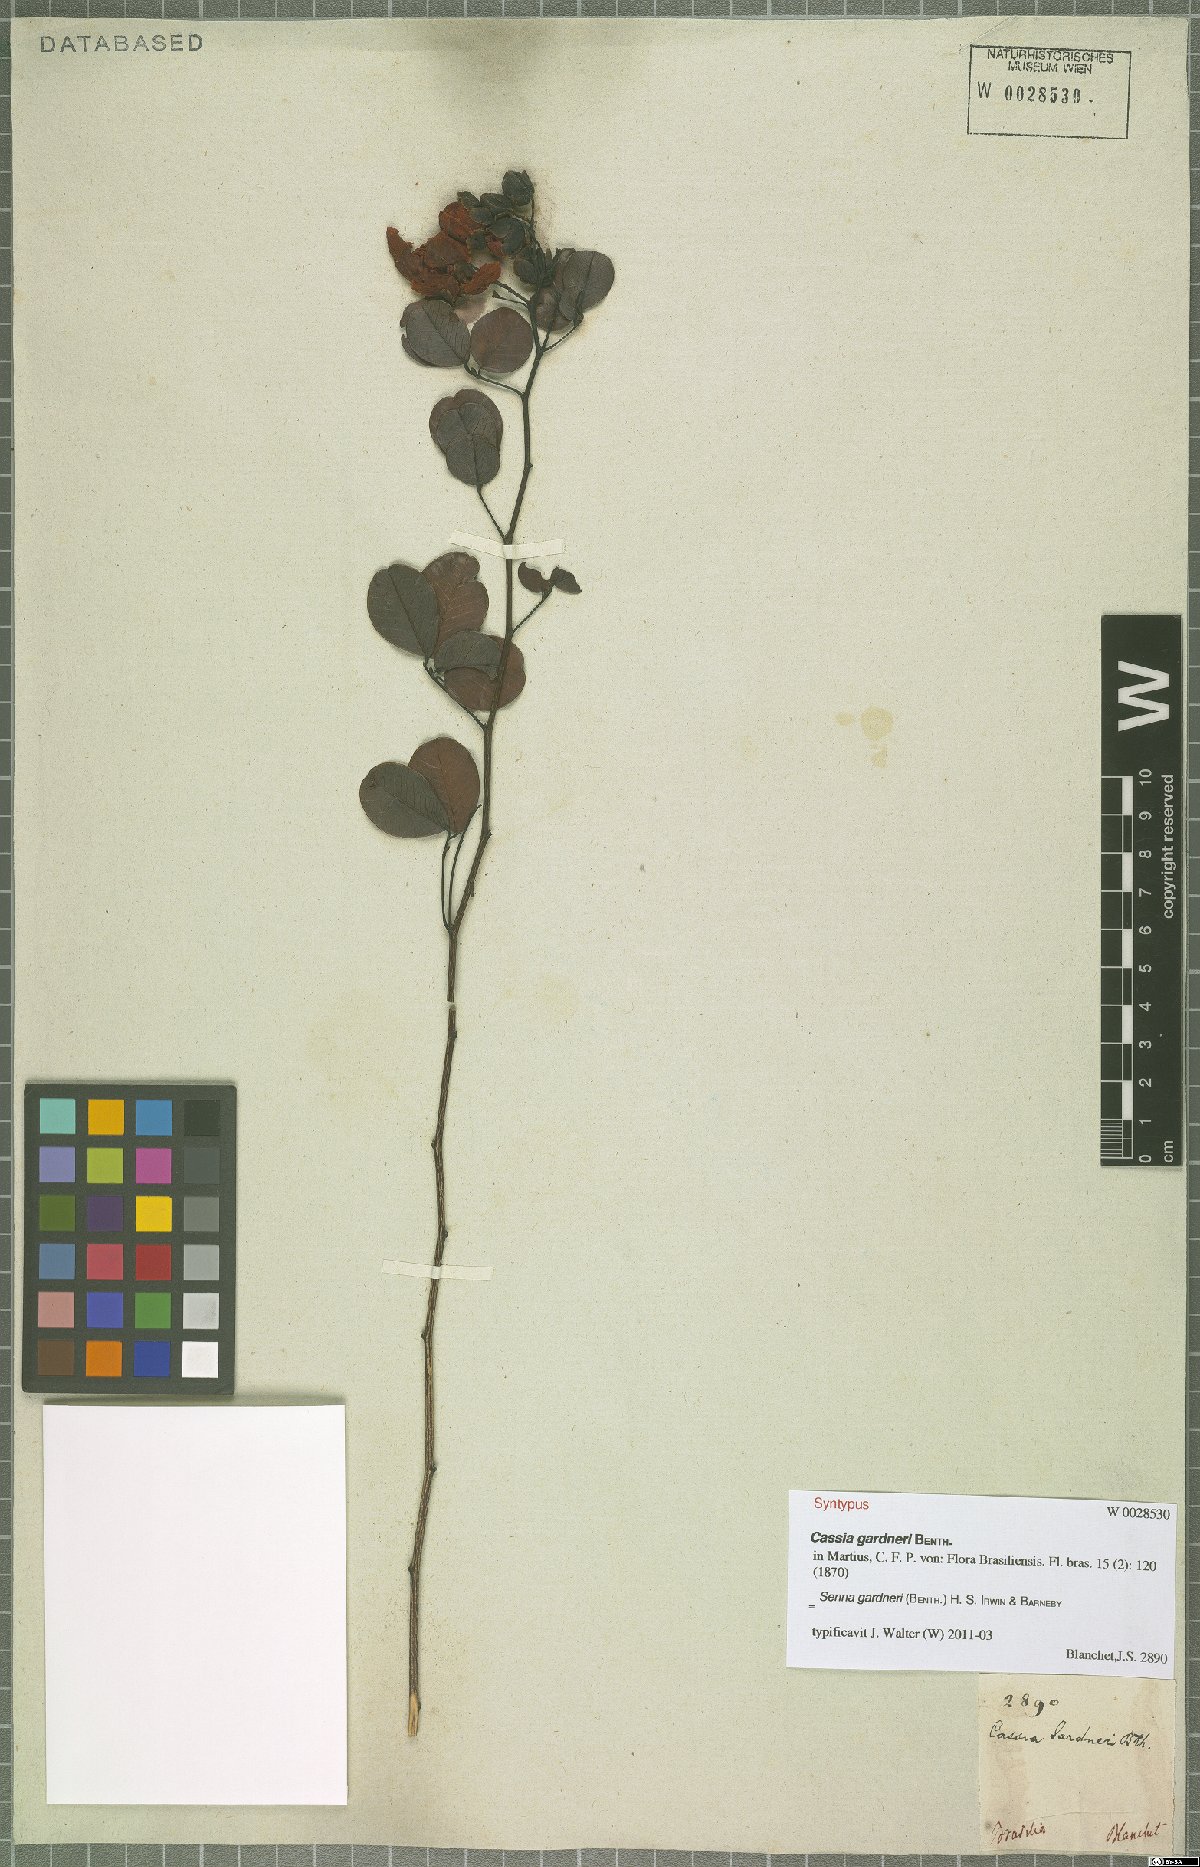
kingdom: Plantae
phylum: Tracheophyta
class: Magnoliopsida
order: Fabales
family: Fabaceae
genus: Senna
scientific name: Senna gardneri
